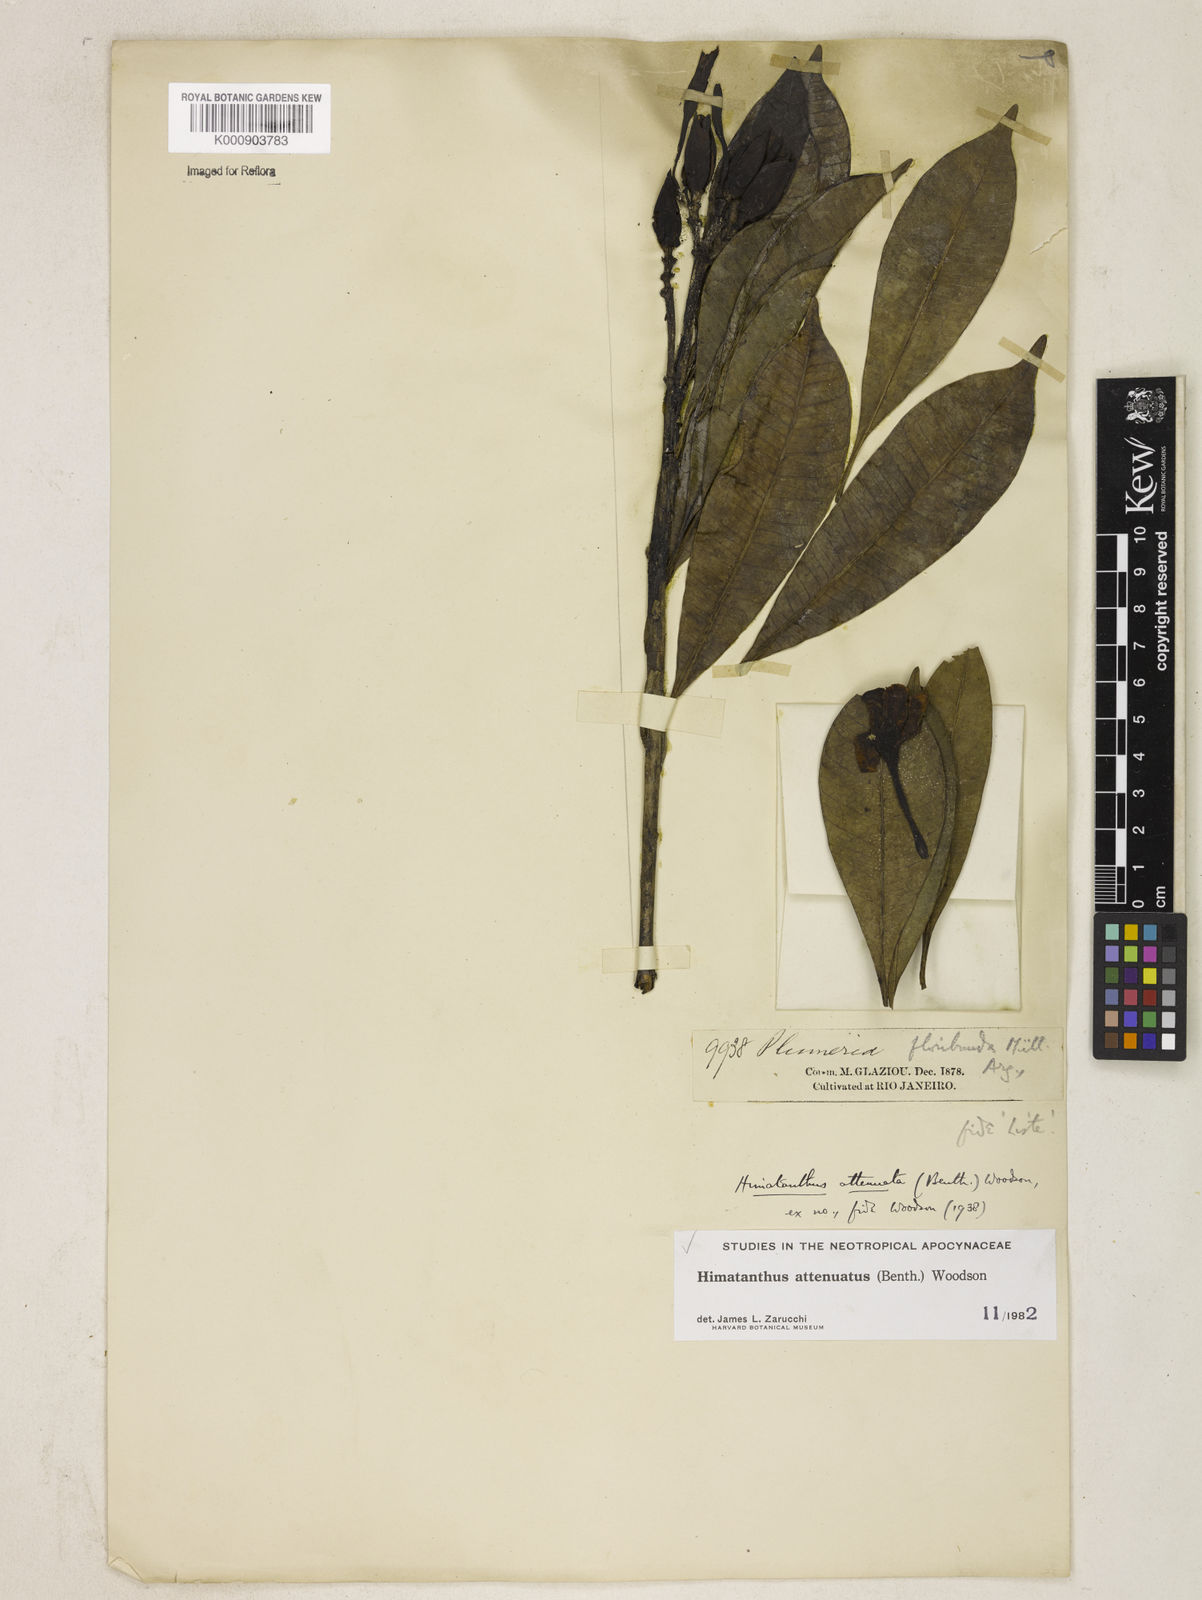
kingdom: Plantae
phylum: Tracheophyta
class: Magnoliopsida
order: Gentianales
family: Apocynaceae
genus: Himatanthus
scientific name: Himatanthus attenuatus
